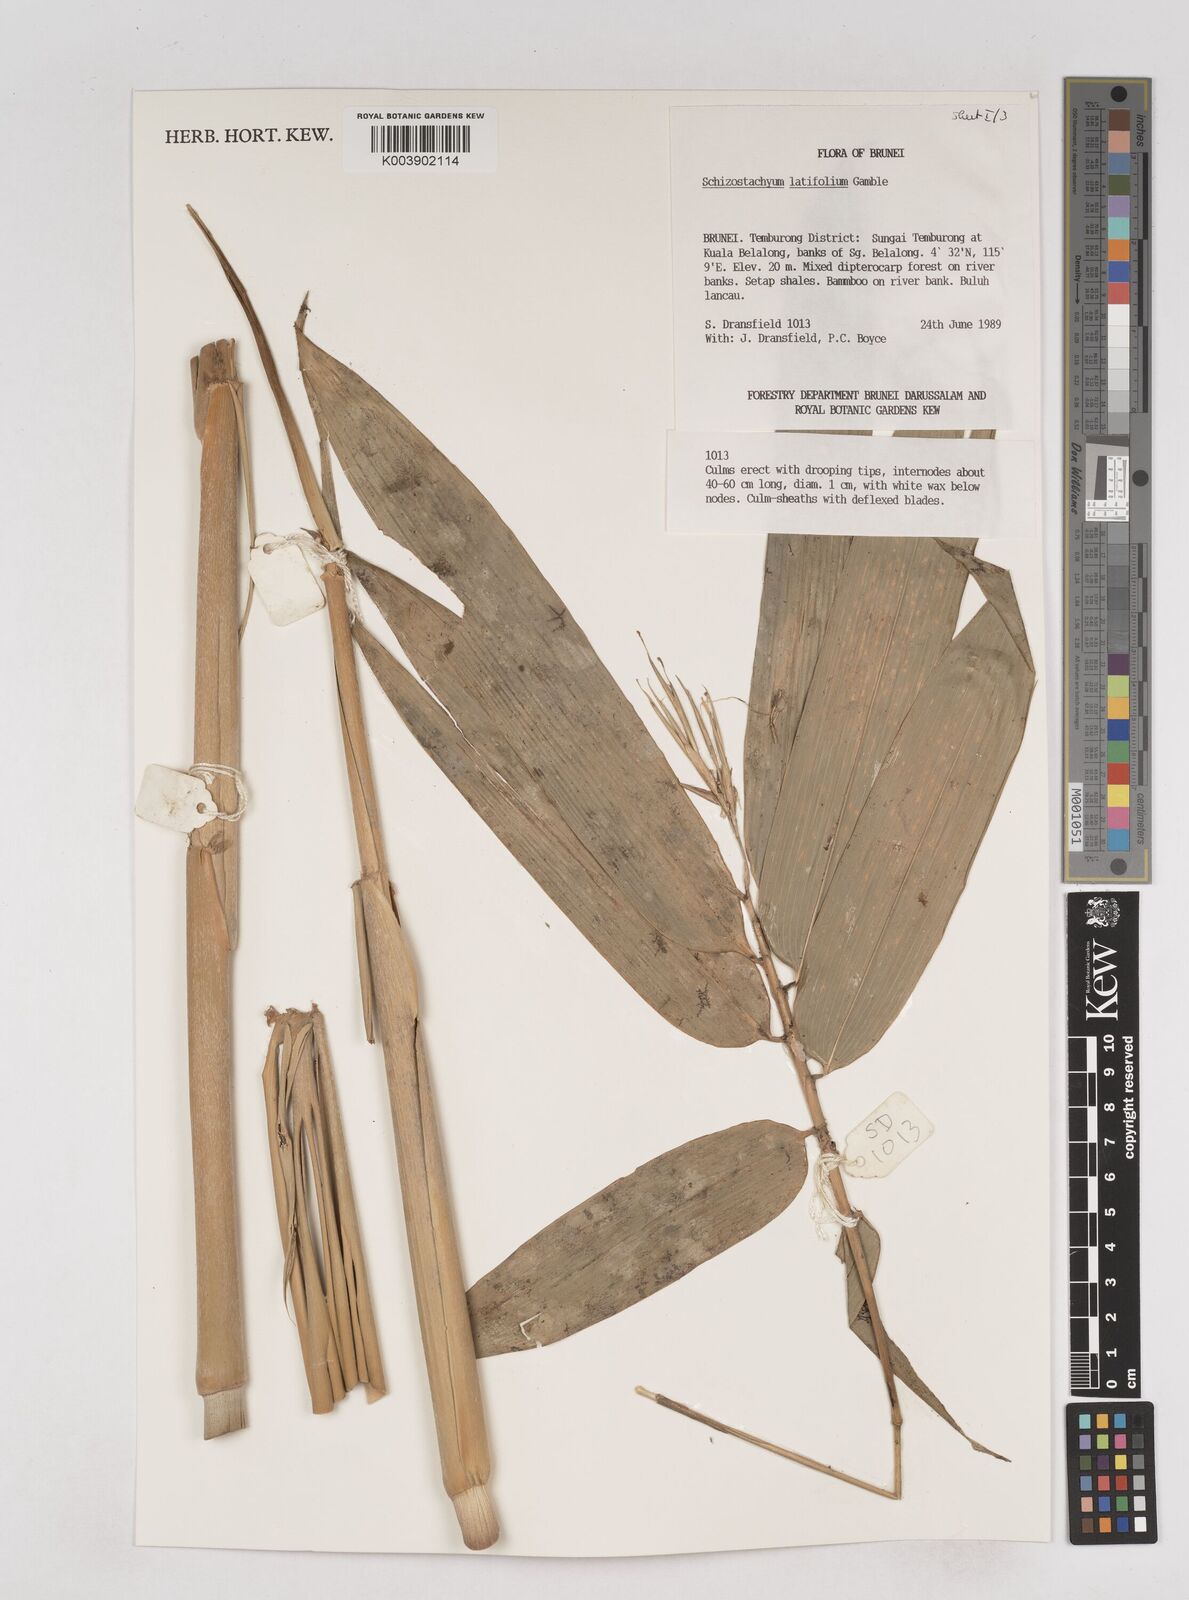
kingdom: Plantae
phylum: Tracheophyta
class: Liliopsida
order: Poales
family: Poaceae
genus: Schizostachyum
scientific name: Schizostachyum
